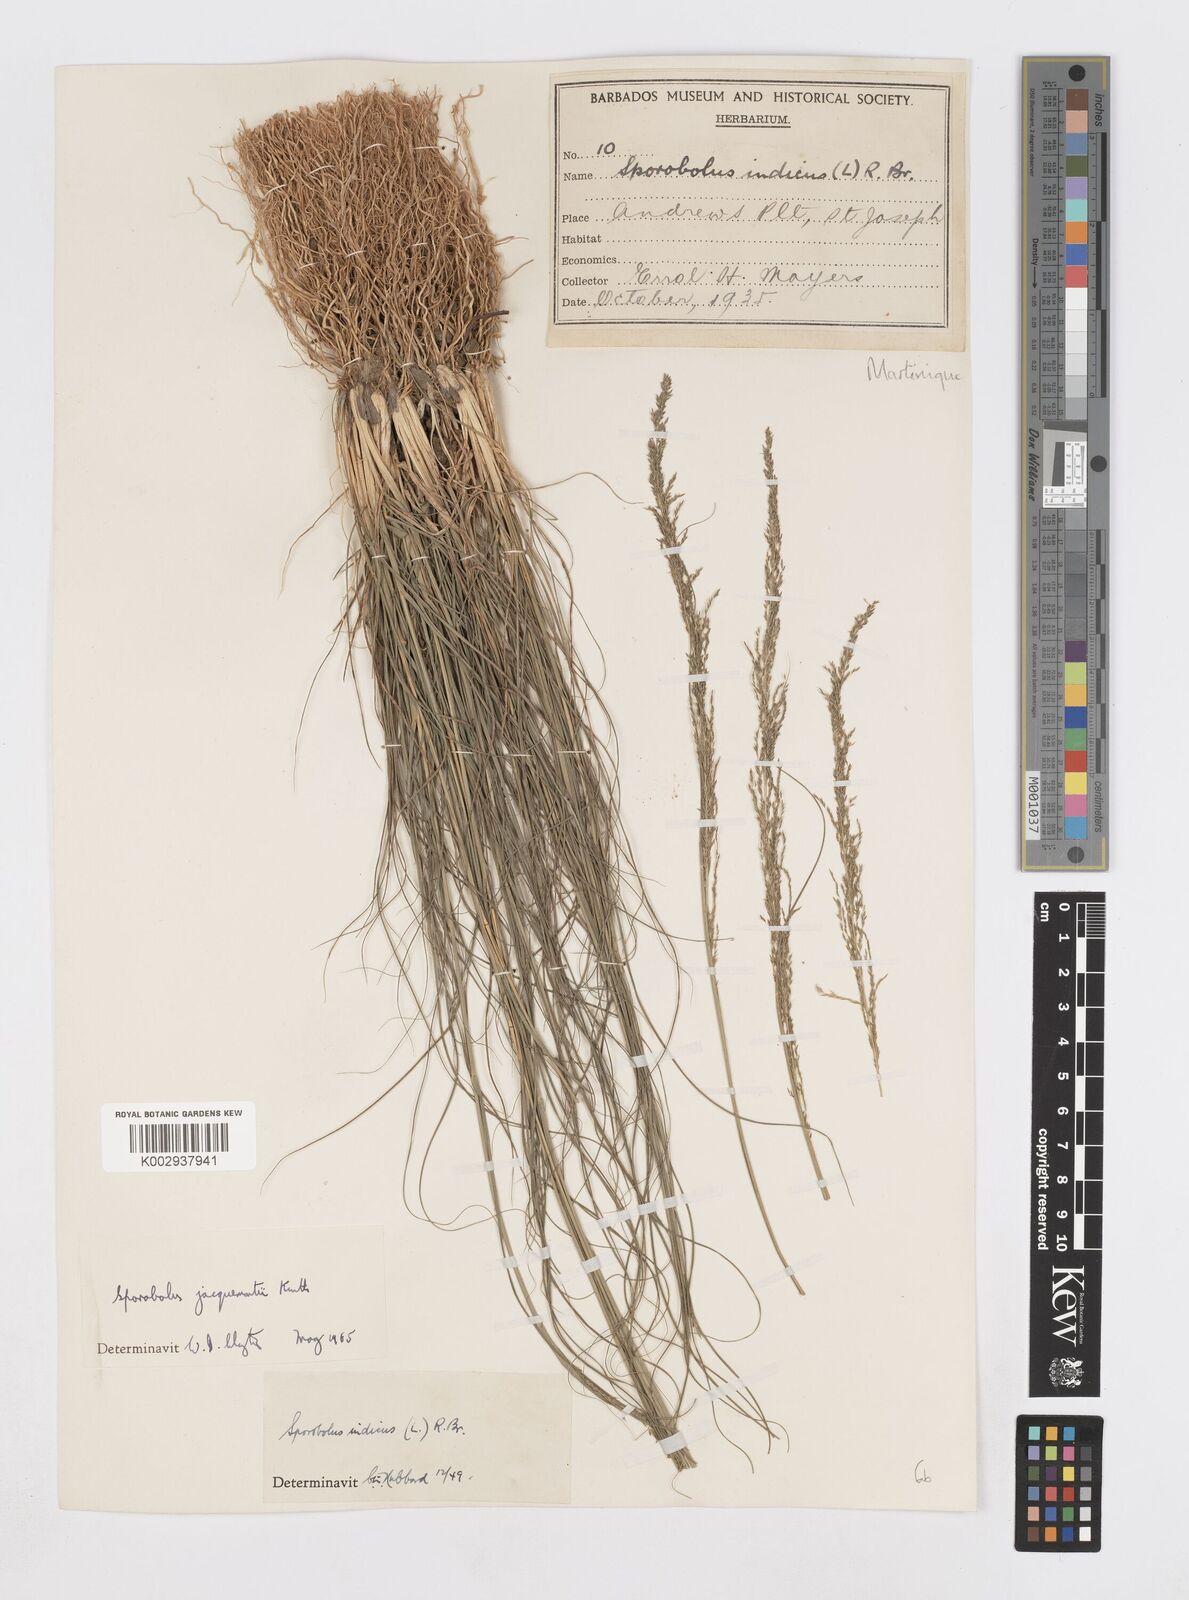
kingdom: Plantae
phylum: Tracheophyta
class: Liliopsida
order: Poales
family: Poaceae
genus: Sporobolus
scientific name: Sporobolus pyramidalis
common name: West indian dropseed
